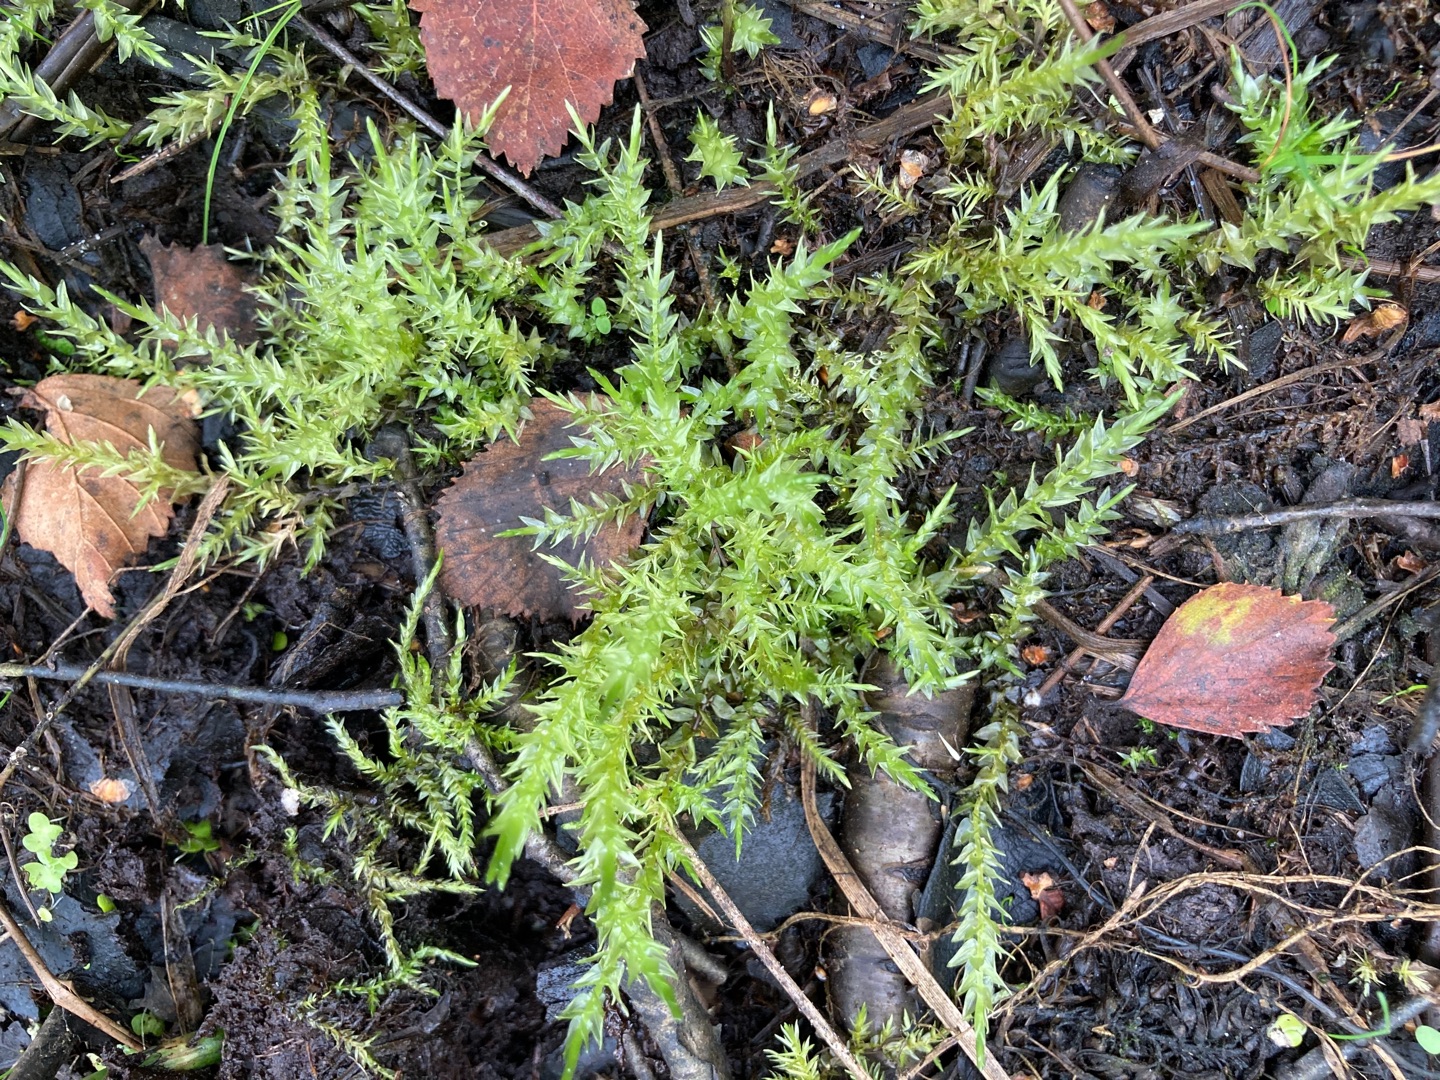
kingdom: Plantae
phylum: Bryophyta
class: Bryopsida
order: Hypnales
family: Calliergonaceae
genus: Calliergon
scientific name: Calliergon cordifolium
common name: Almindelig skebladsmos
